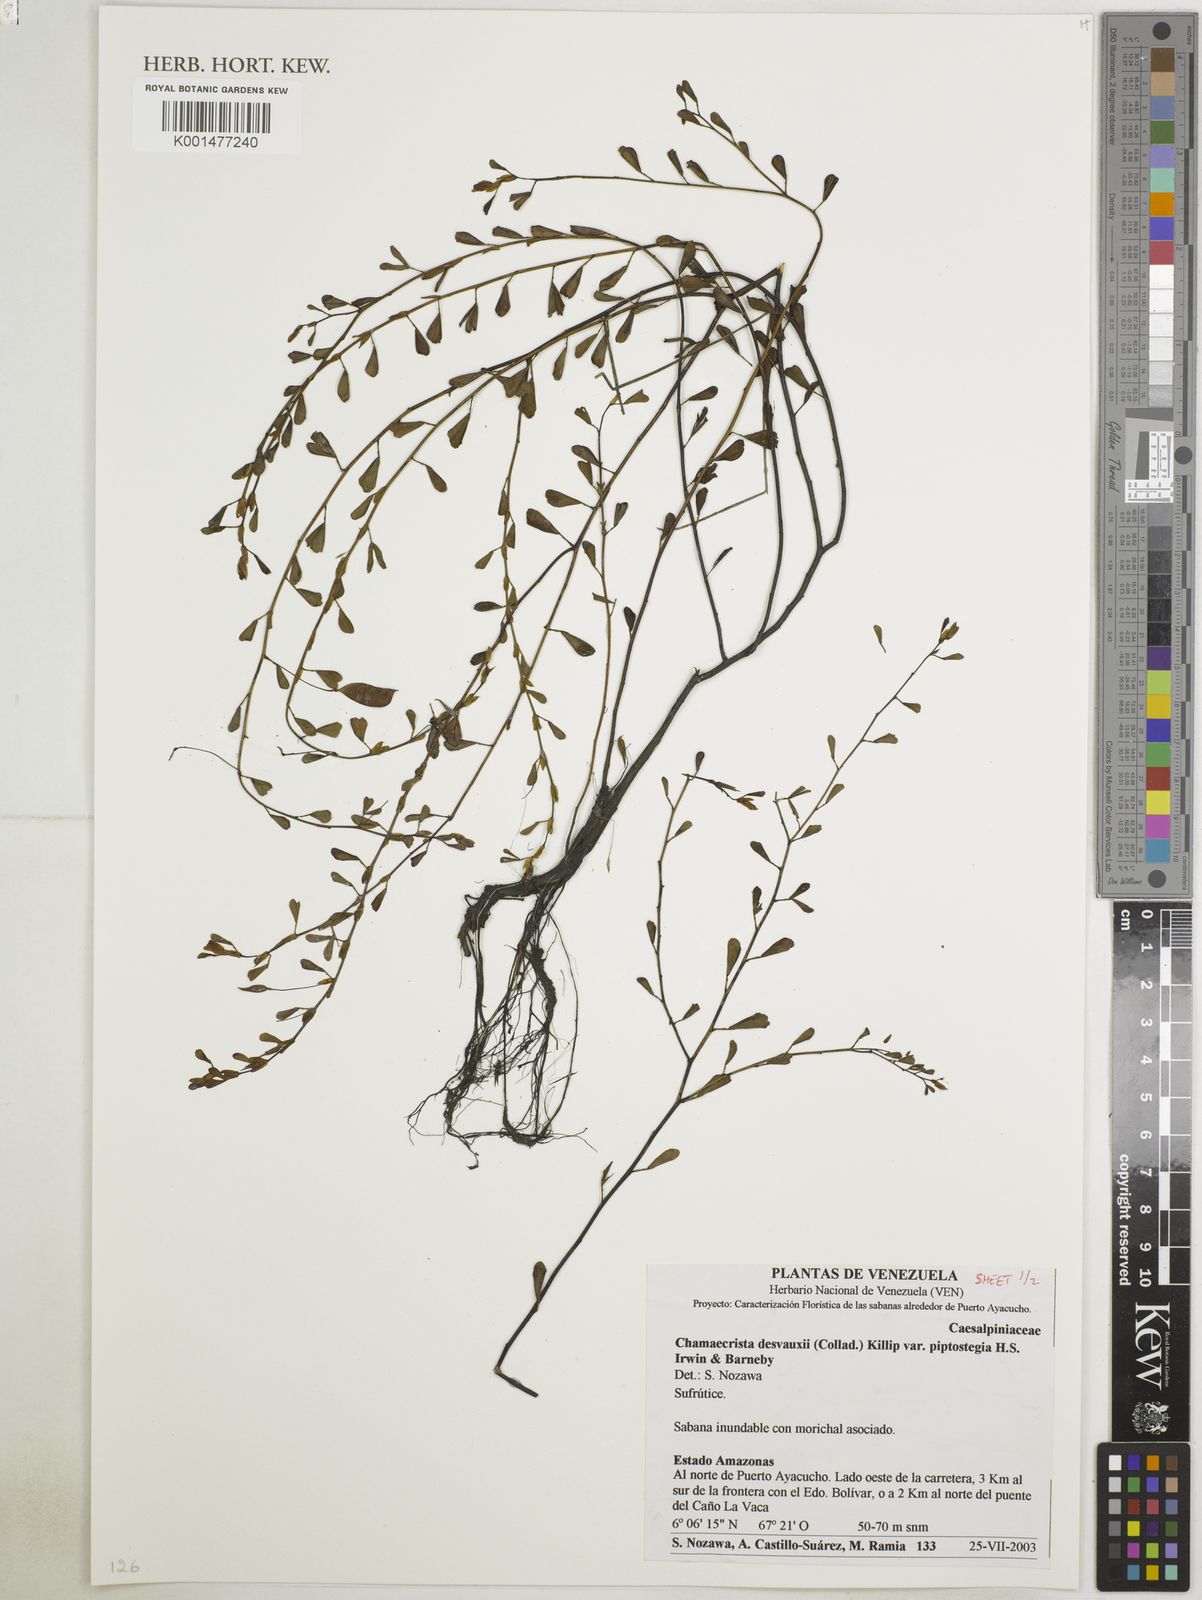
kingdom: Plantae
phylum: Tracheophyta
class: Magnoliopsida
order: Fabales
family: Fabaceae
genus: Chamaecrista
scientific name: Chamaecrista desvauxii
